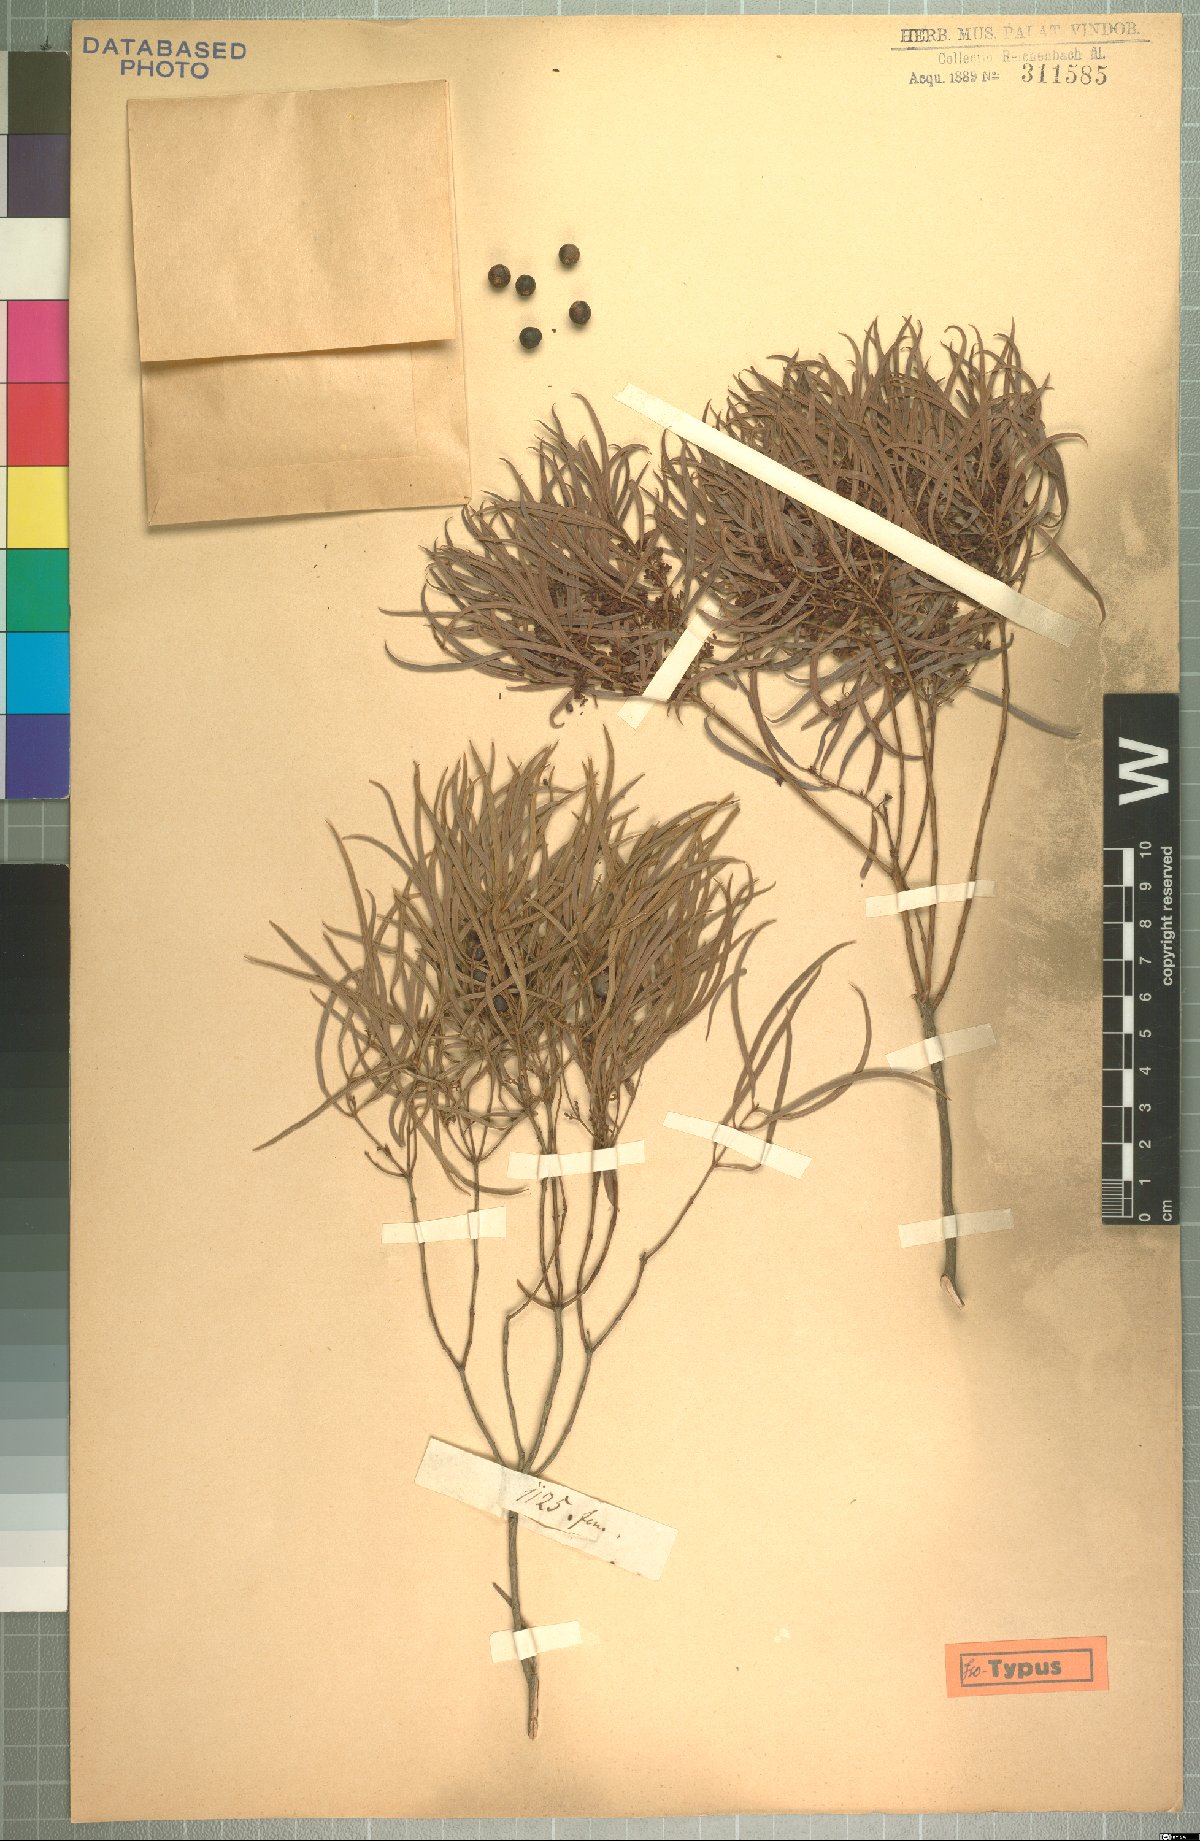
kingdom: Plantae
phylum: Tracheophyta
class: Magnoliopsida
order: Ericales
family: Ebenaceae
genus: Euclea
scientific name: Euclea crispa
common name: Blue guarri
